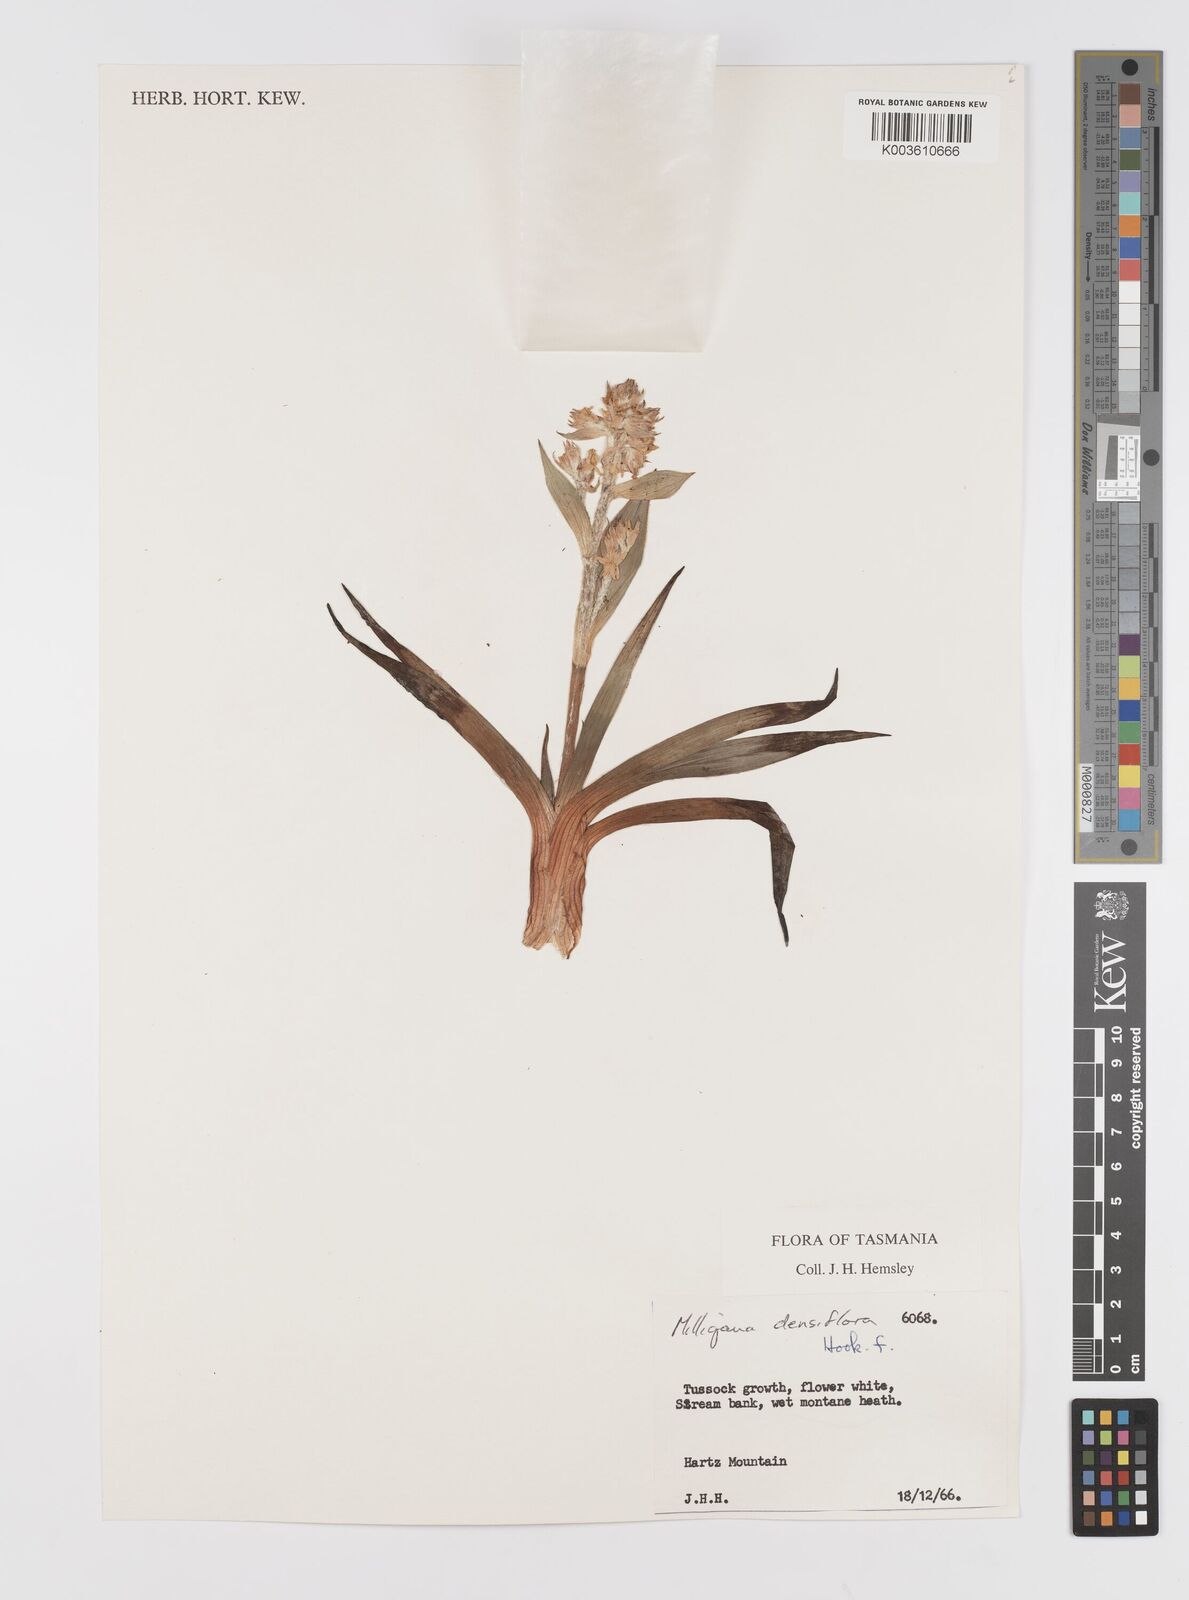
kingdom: Plantae
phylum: Tracheophyta
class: Liliopsida
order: Asparagales
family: Asteliaceae
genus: Milligania
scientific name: Milligania densiflora
